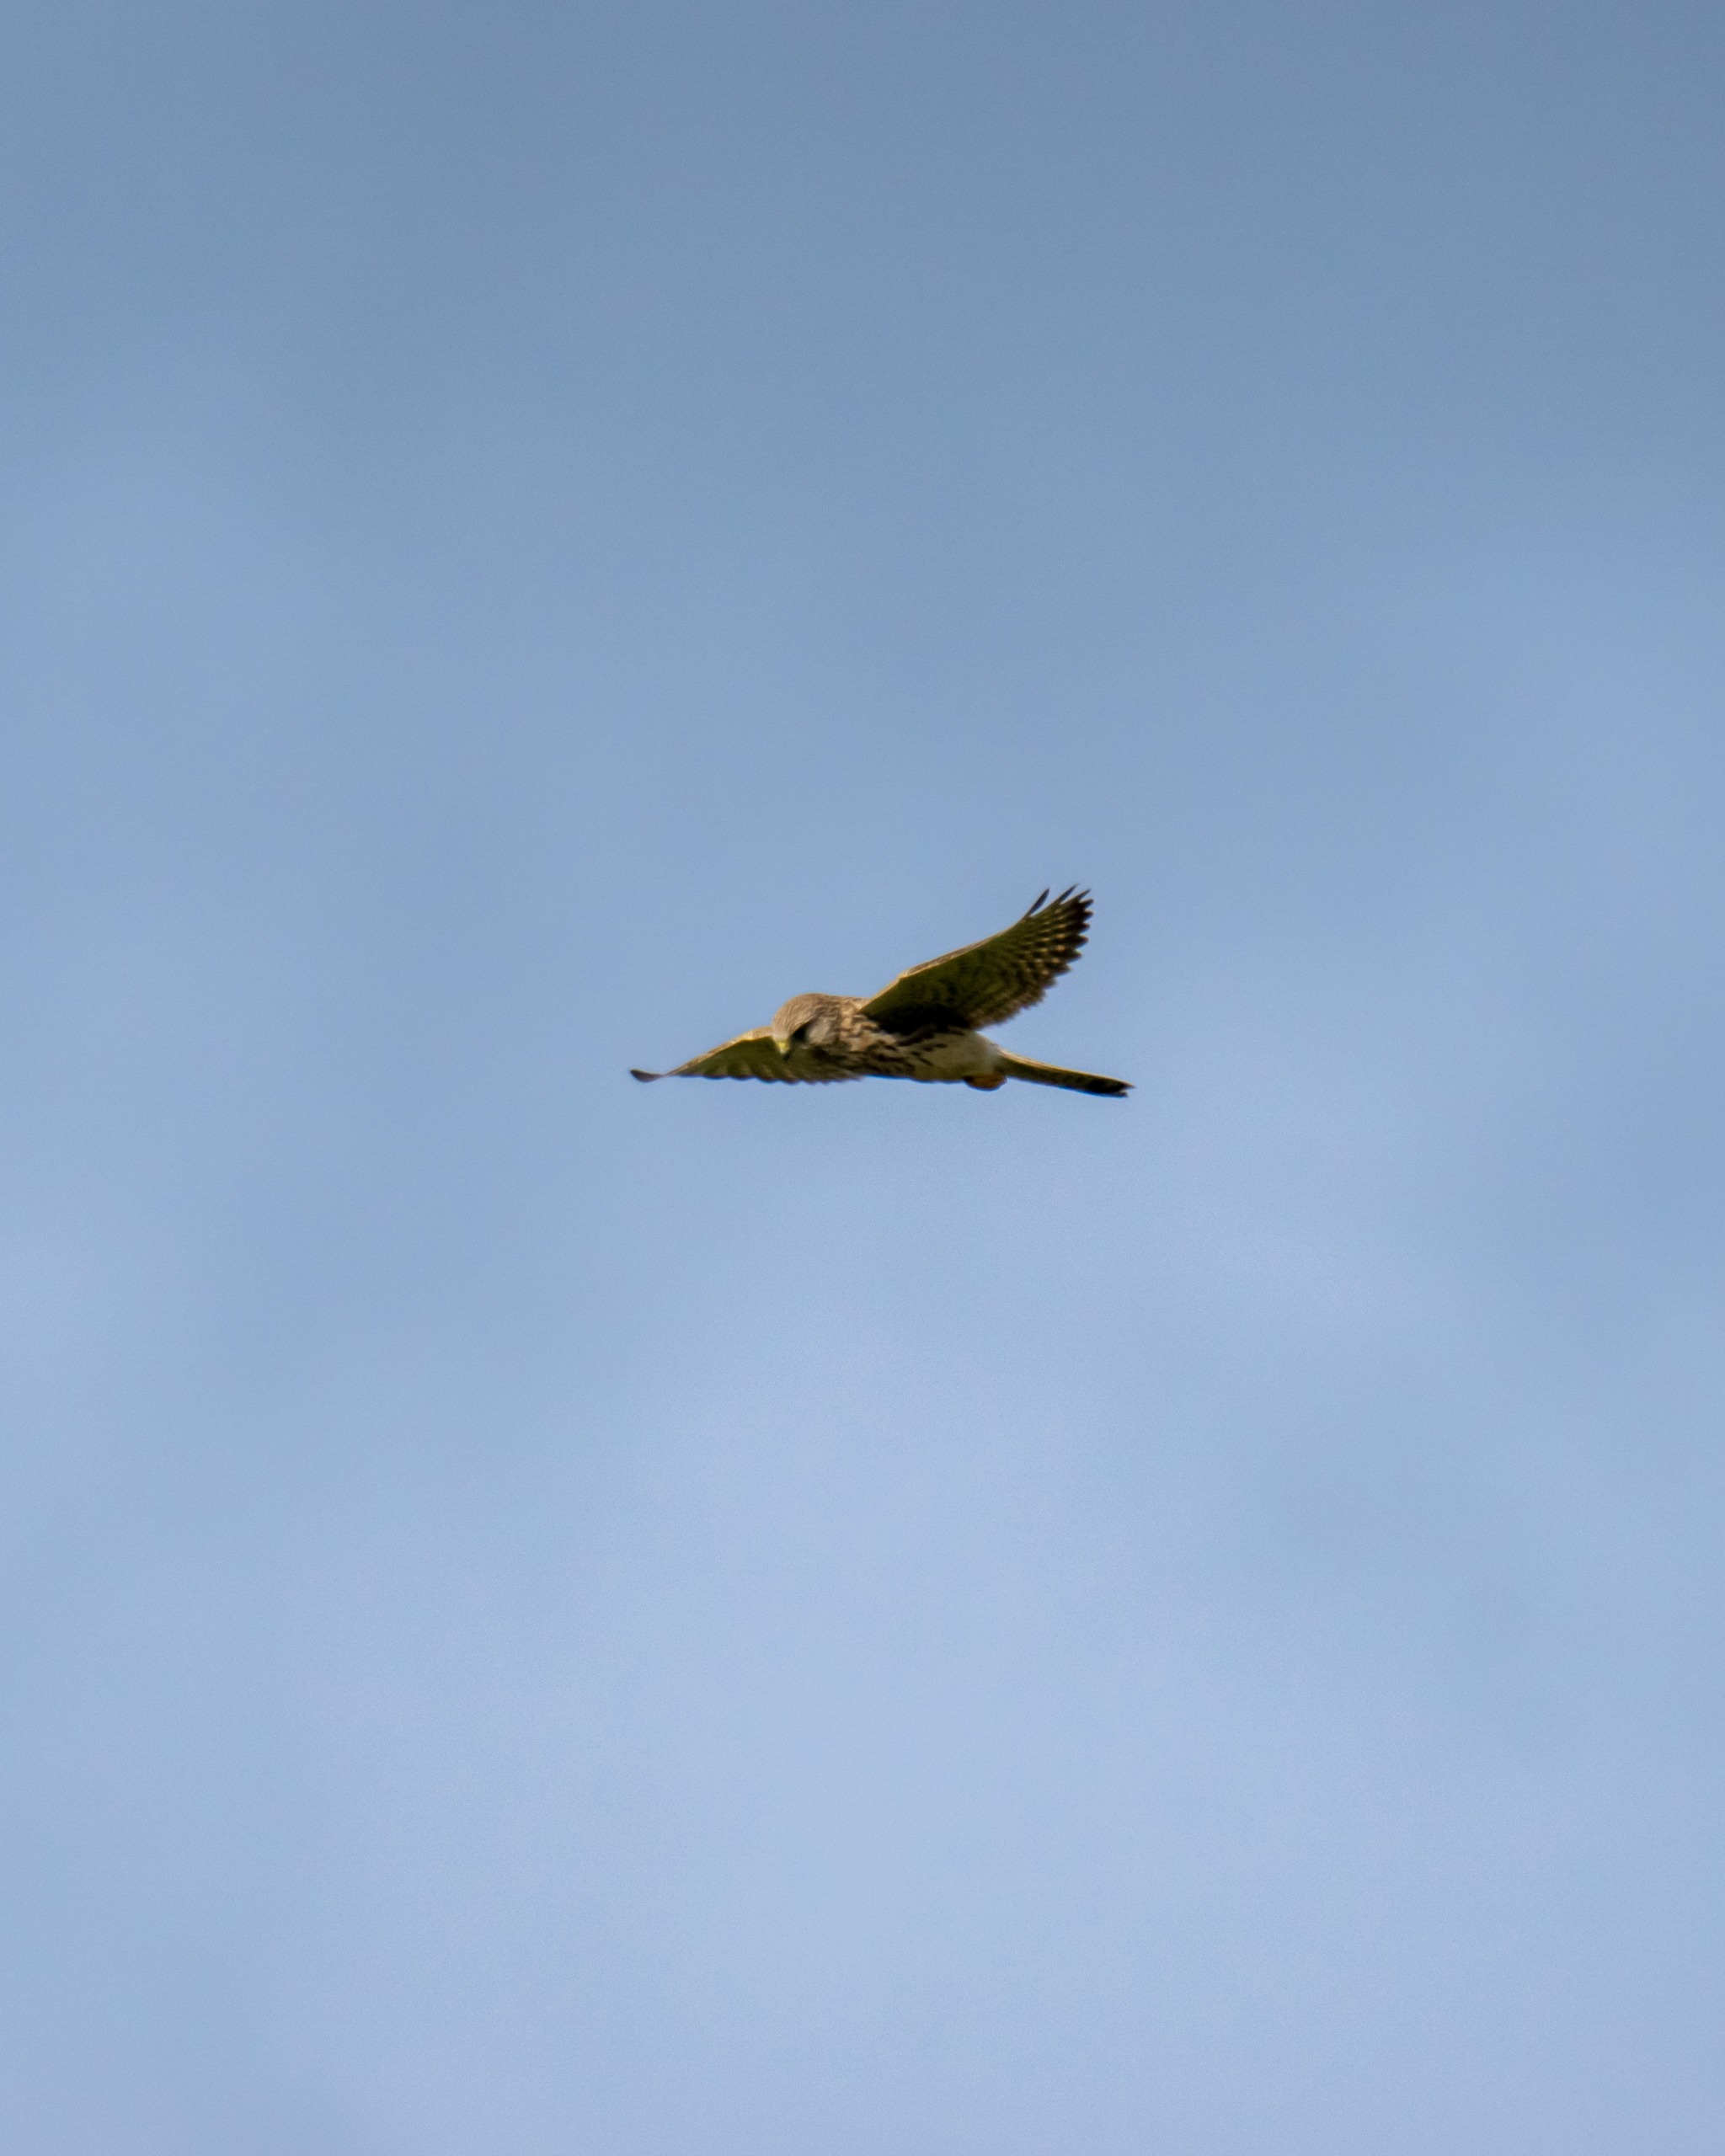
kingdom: Animalia
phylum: Chordata
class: Aves
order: Falconiformes
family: Falconidae
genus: Falco
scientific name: Falco tinnunculus
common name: Tårnfalk
